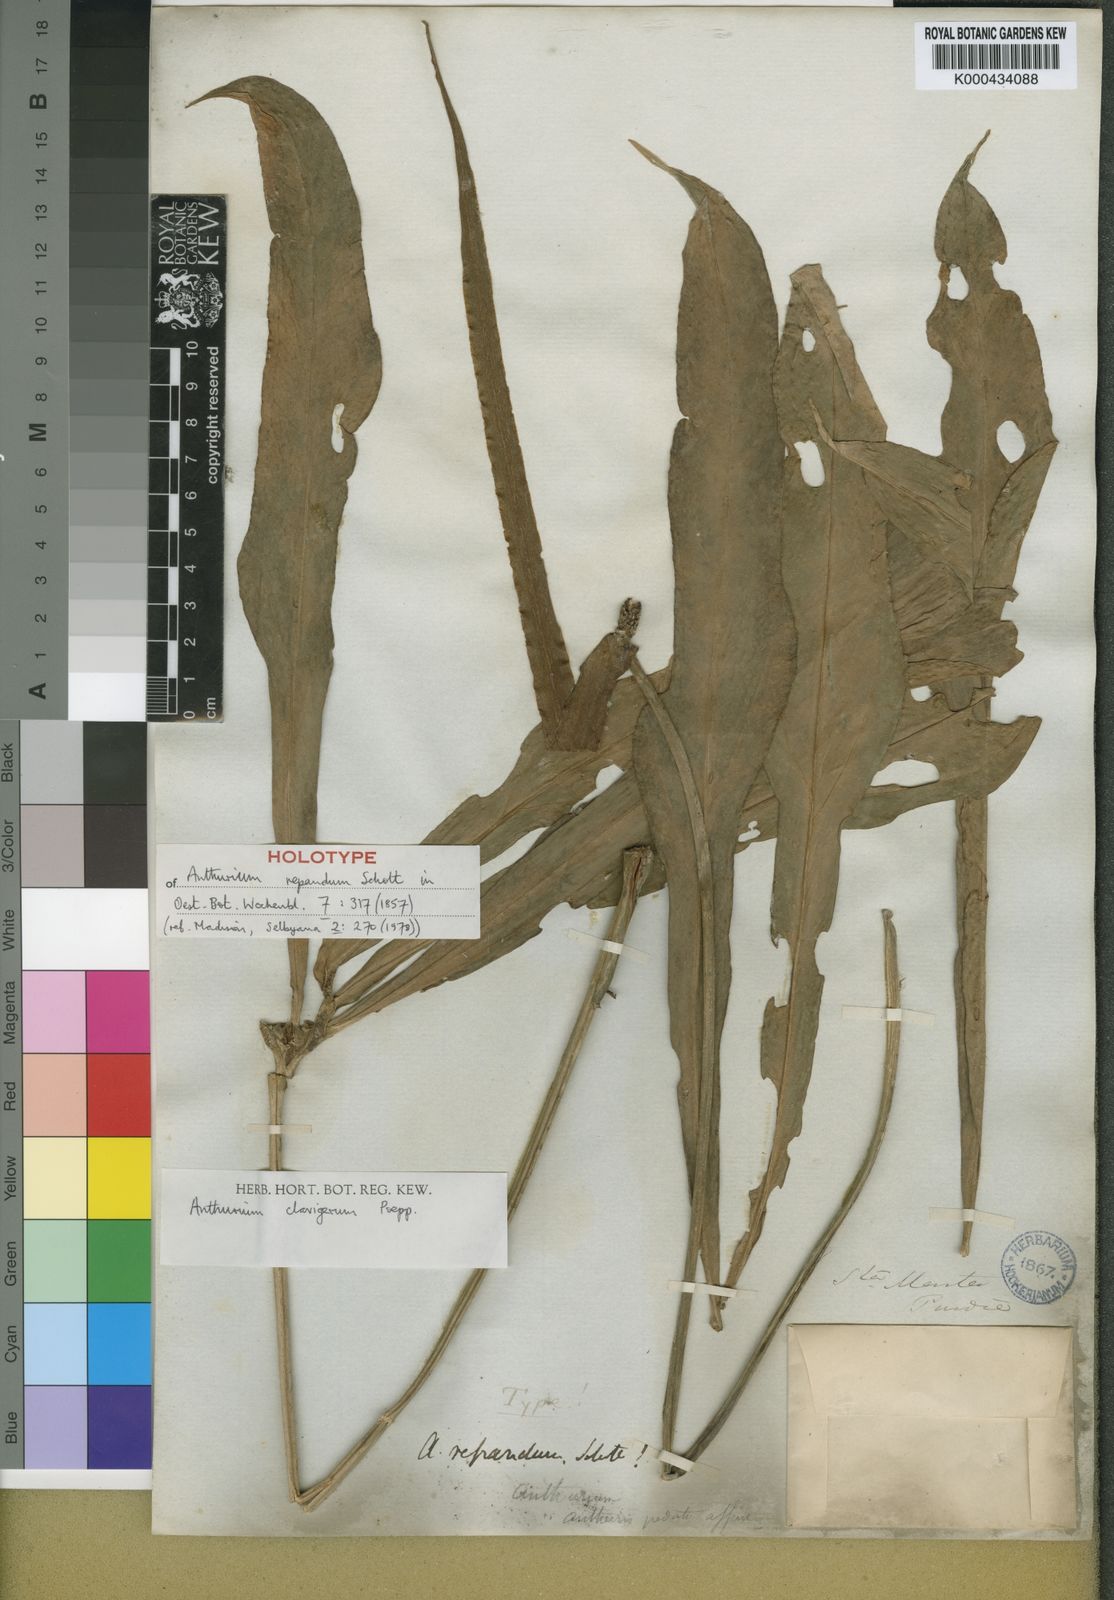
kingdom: Plantae
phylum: Tracheophyta
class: Liliopsida
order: Alismatales
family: Araceae
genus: Anthurium
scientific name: Anthurium
